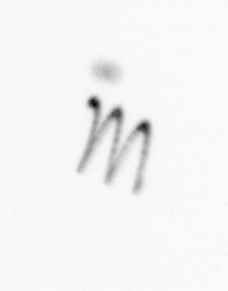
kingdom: Chromista
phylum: Ochrophyta
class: Bacillariophyceae
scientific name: Bacillariophyceae
